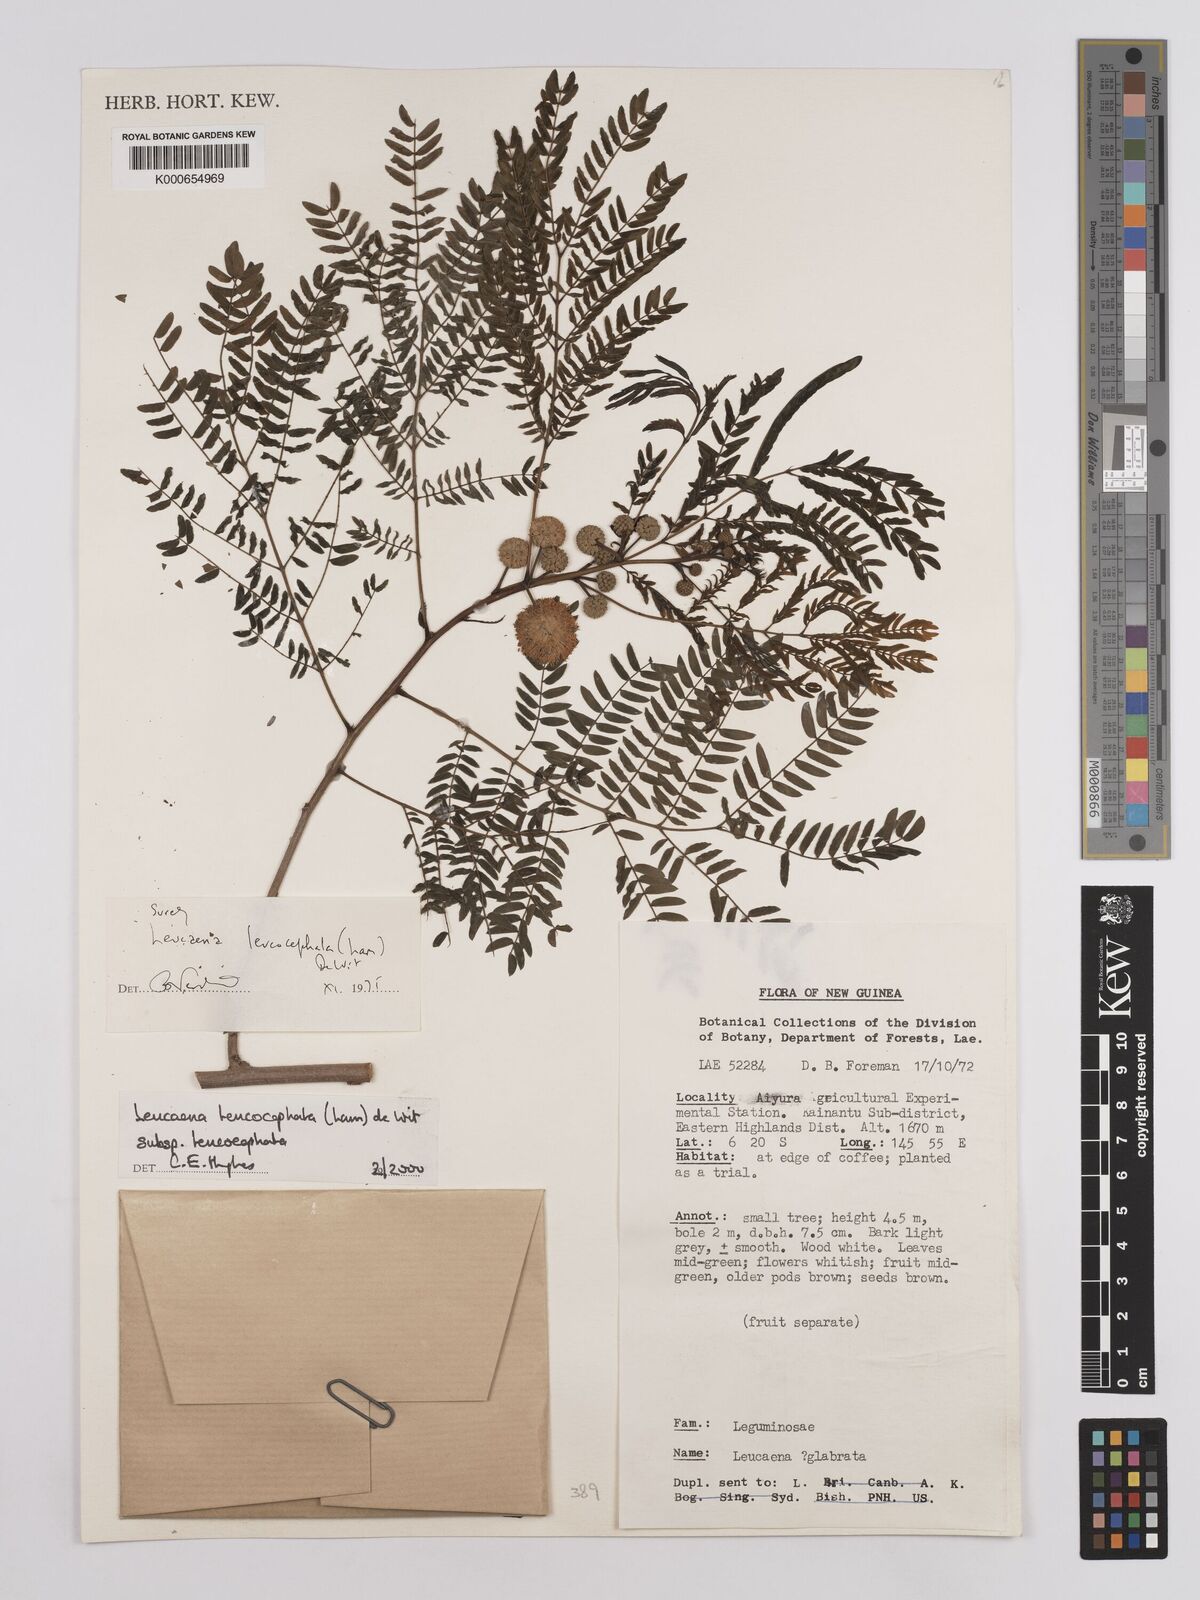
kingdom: Plantae
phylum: Tracheophyta
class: Magnoliopsida
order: Fabales
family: Fabaceae
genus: Leucaena
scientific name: Leucaena leucocephala
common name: White leadtree
